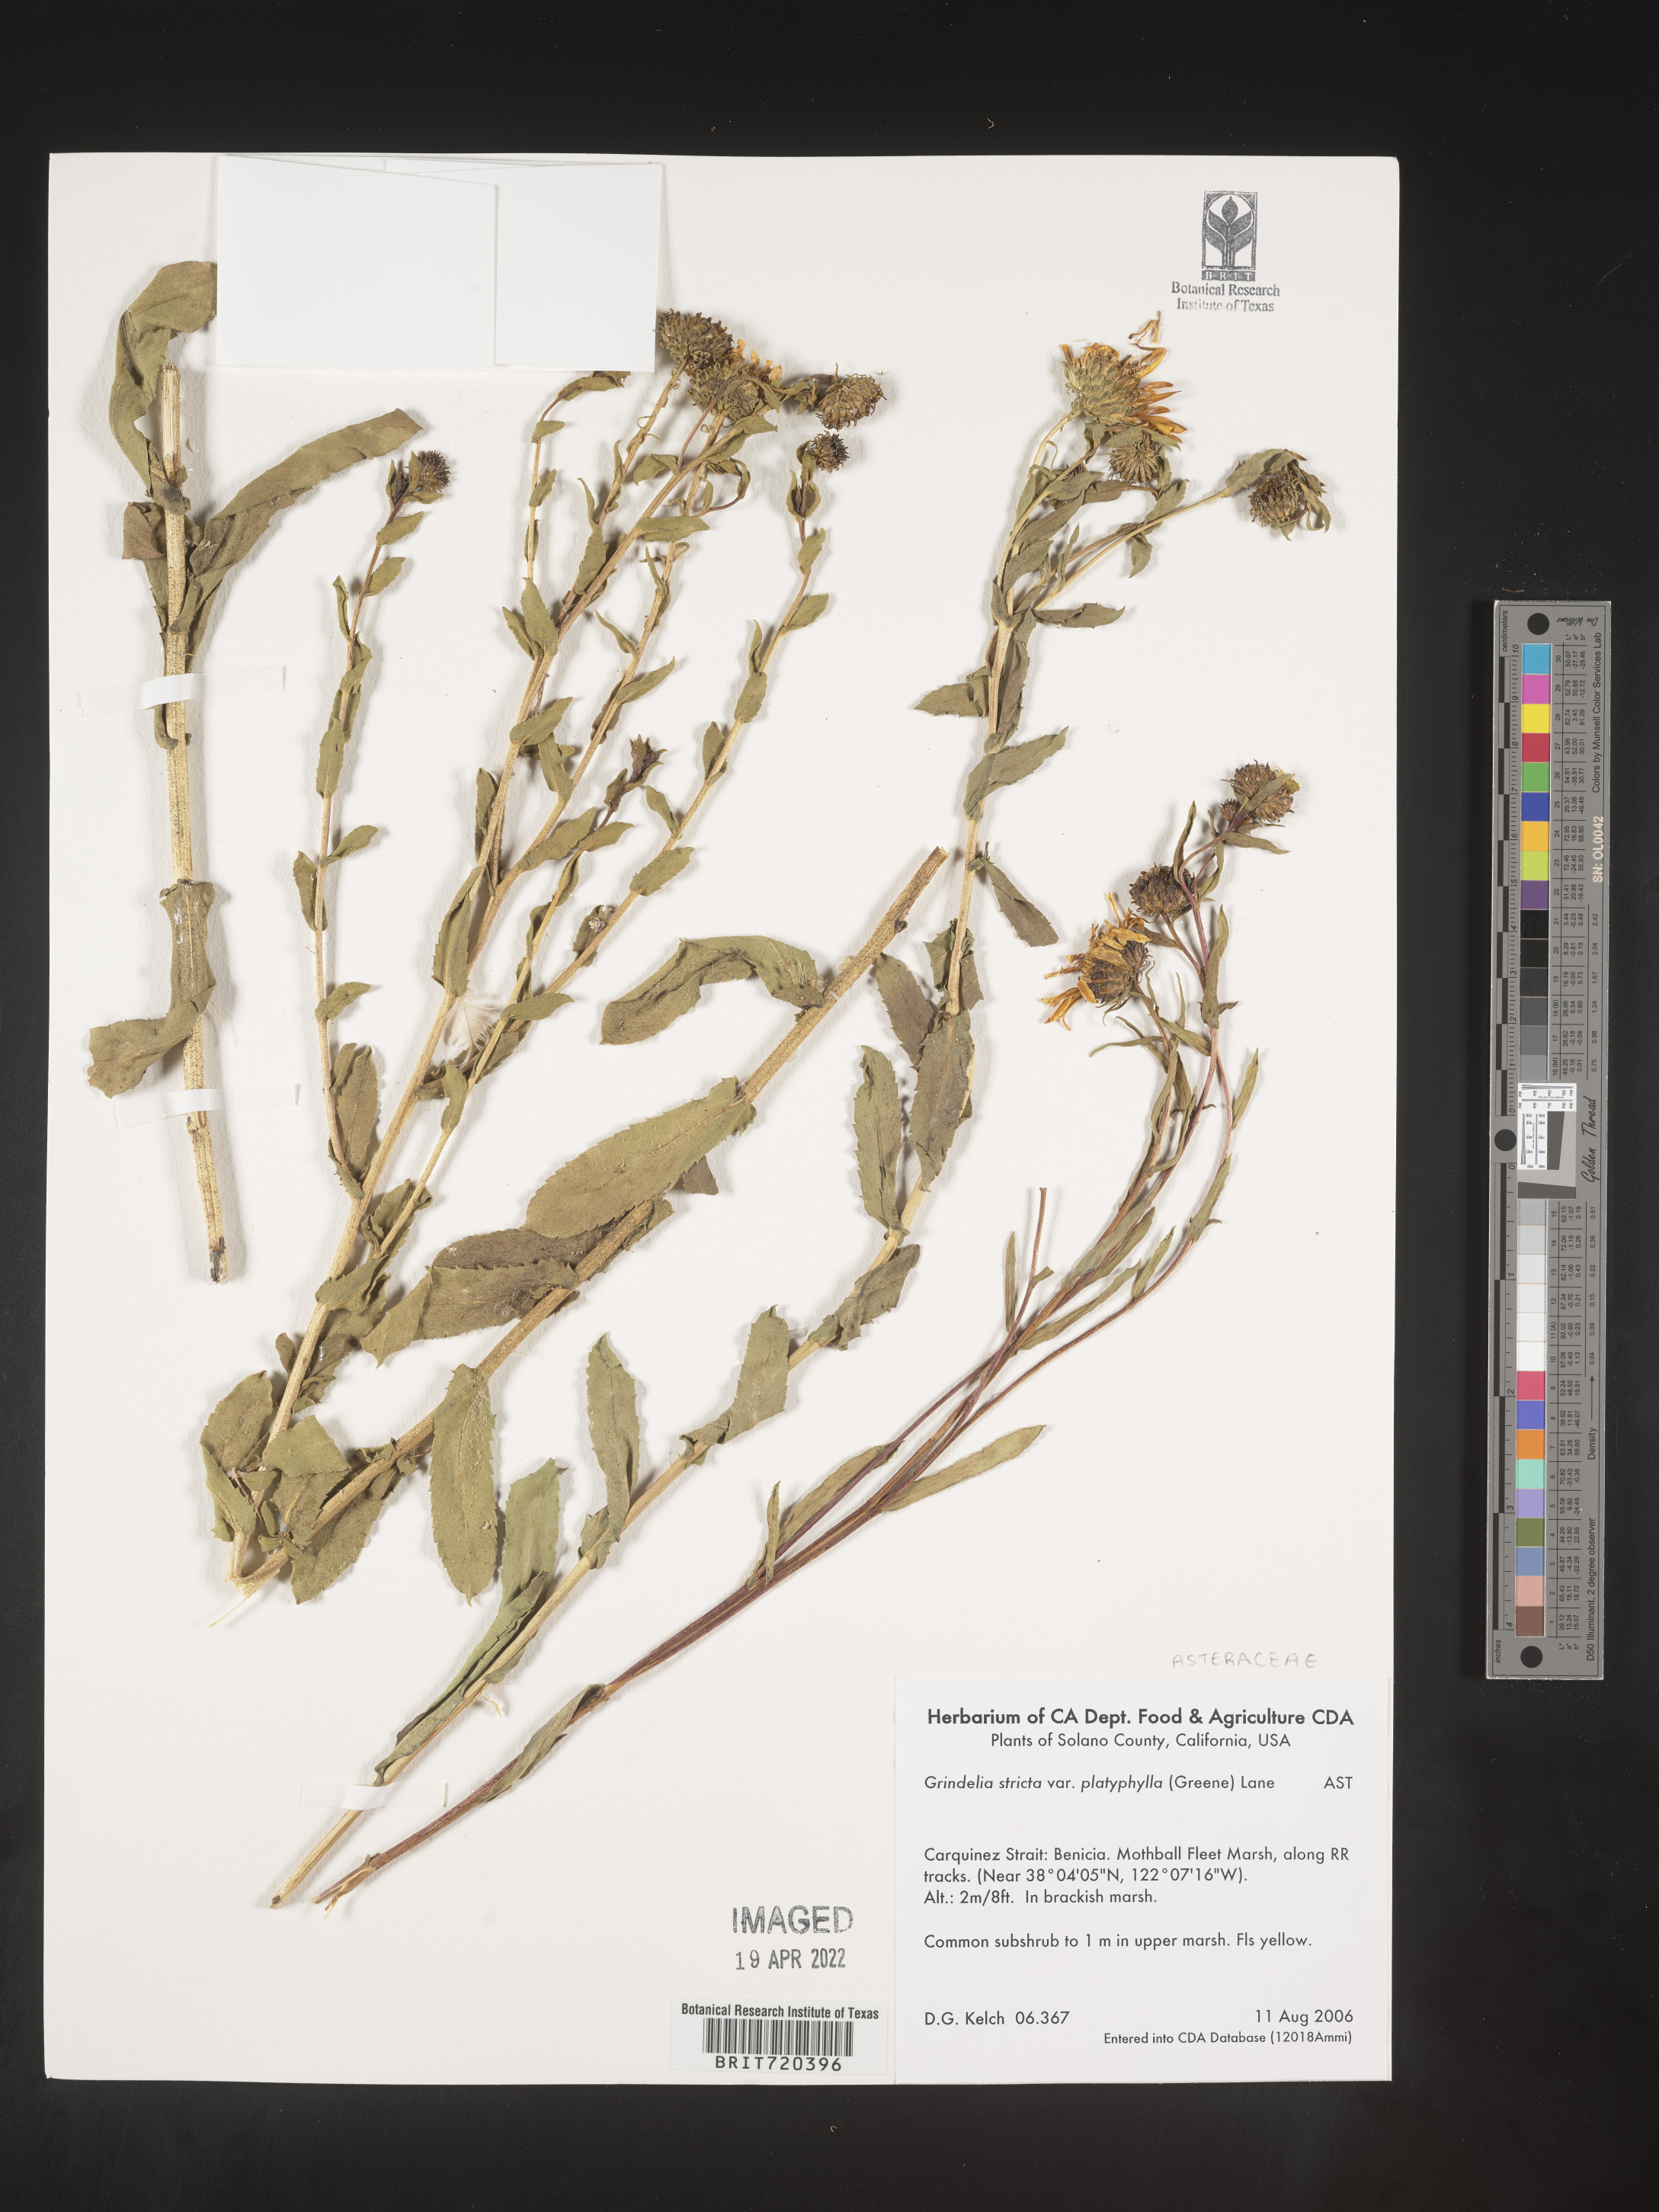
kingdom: Plantae
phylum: Tracheophyta
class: Magnoliopsida
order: Asterales
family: Asteraceae
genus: Grindelia
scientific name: Grindelia hirsutula
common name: Hairy gumweed
